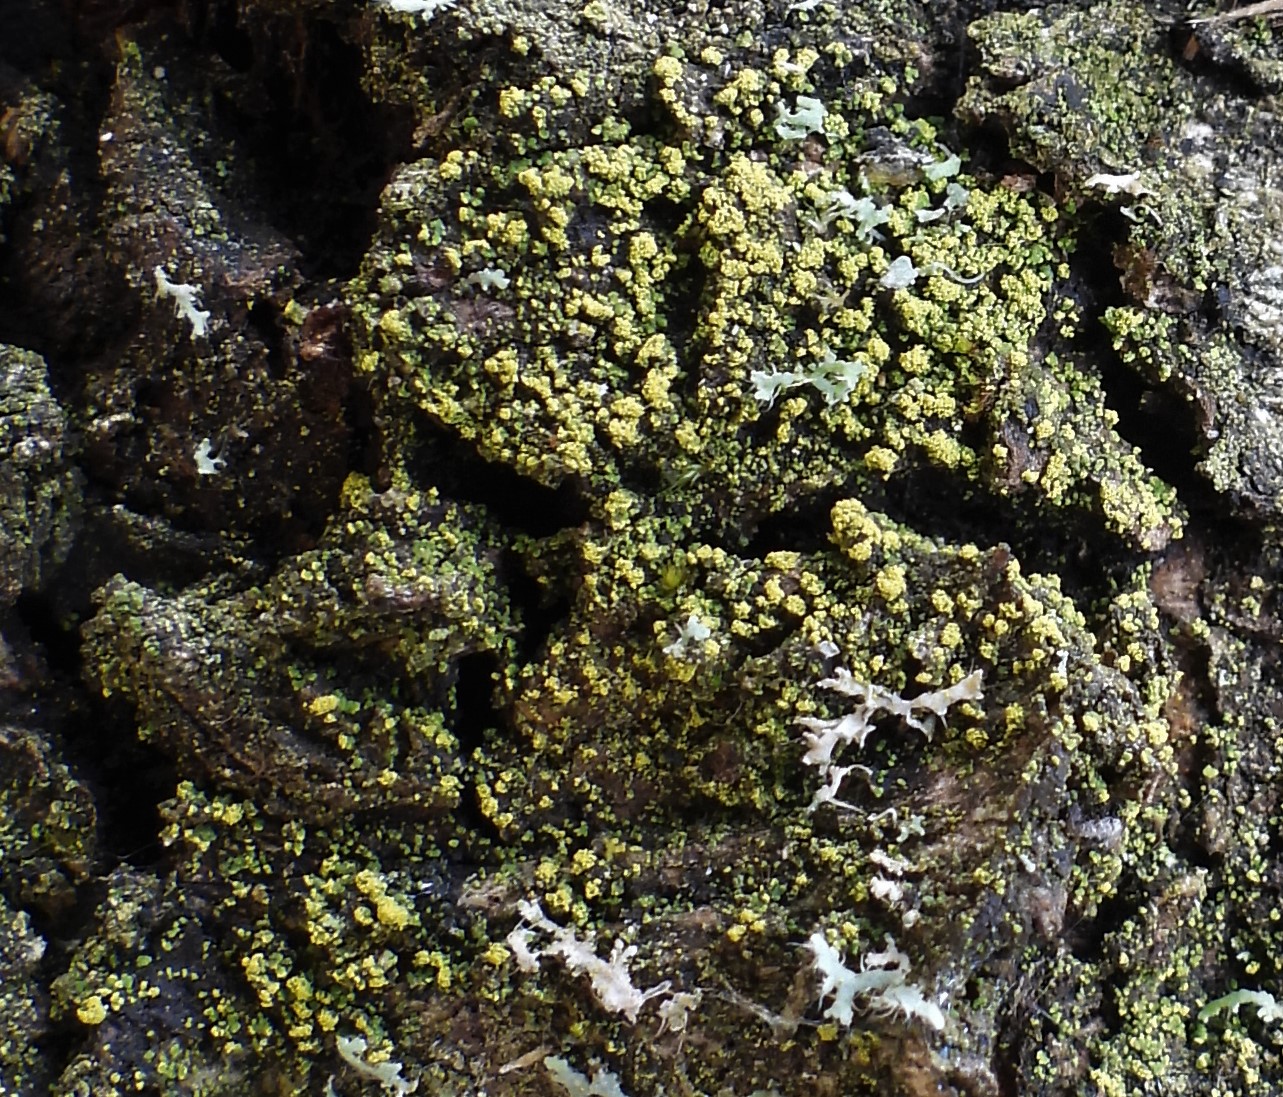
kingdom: Fungi
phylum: Ascomycota
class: Candelariomycetes
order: Candelariales
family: Candelariaceae
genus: Candelariella
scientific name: Candelariella reflexa
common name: grynskællet æggeblommelav
